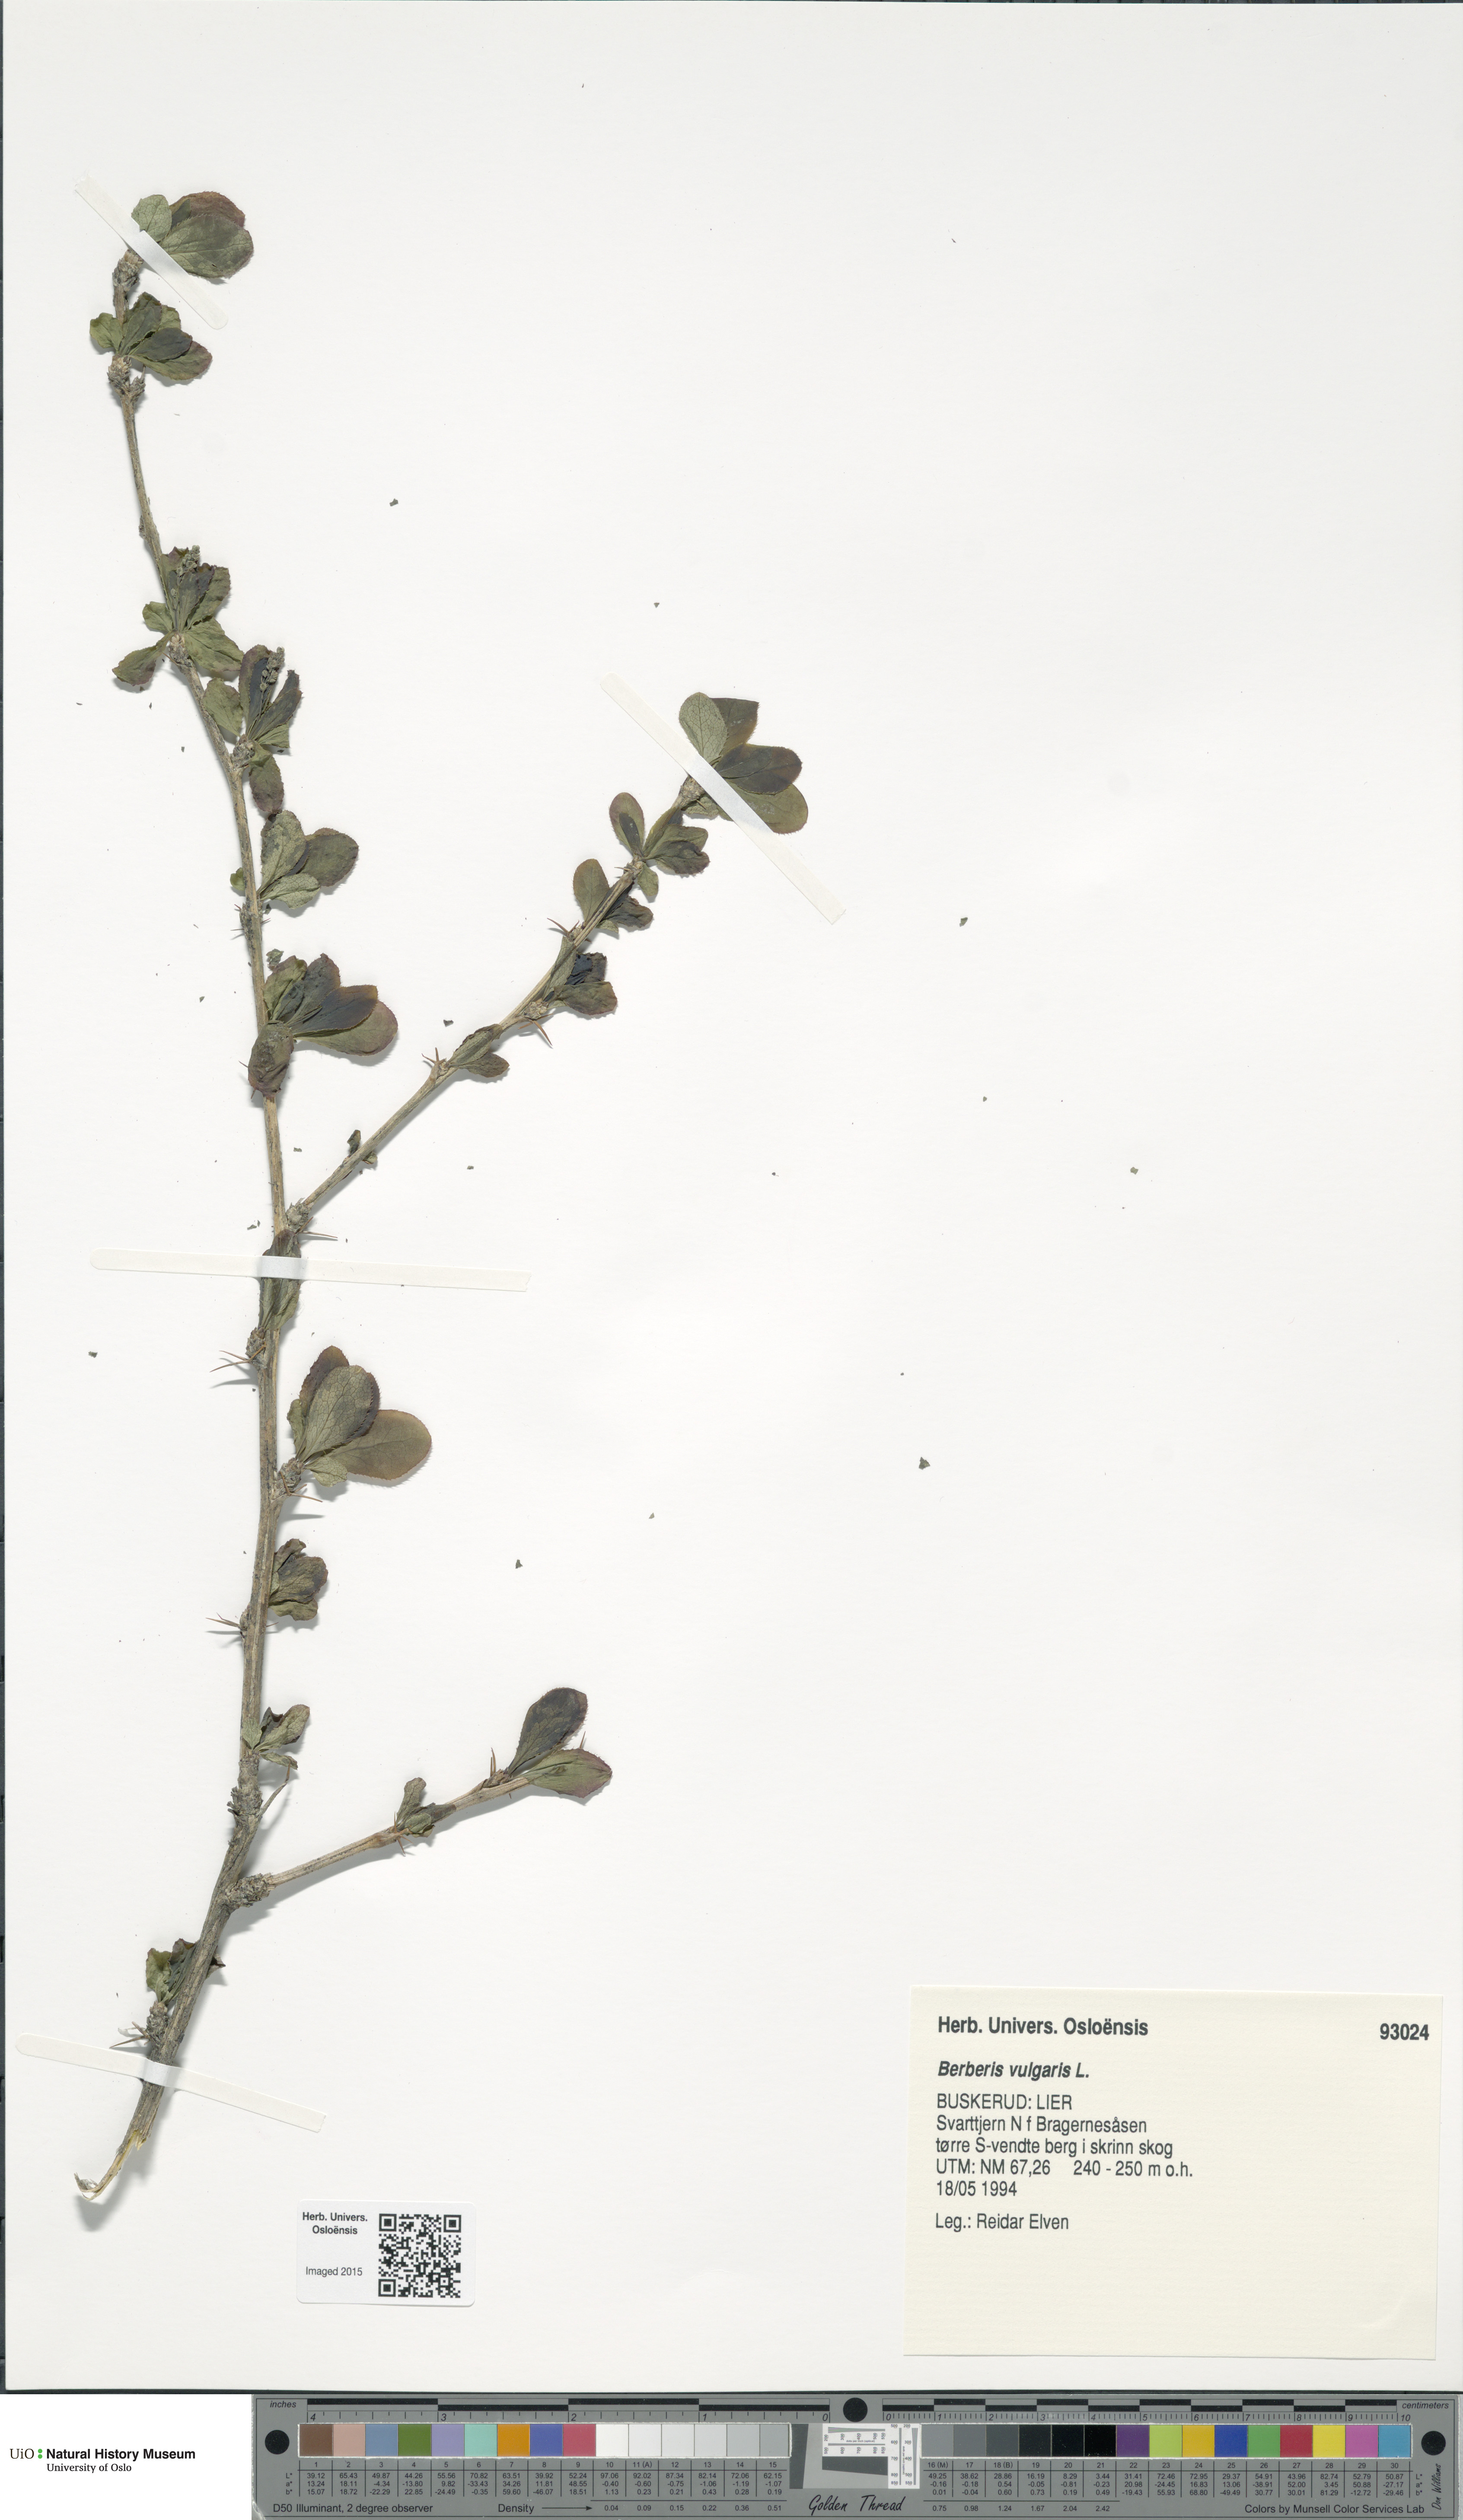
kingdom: Plantae
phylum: Tracheophyta
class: Magnoliopsida
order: Ranunculales
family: Berberidaceae
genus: Berberis
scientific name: Berberis vulgaris
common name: Barberry
